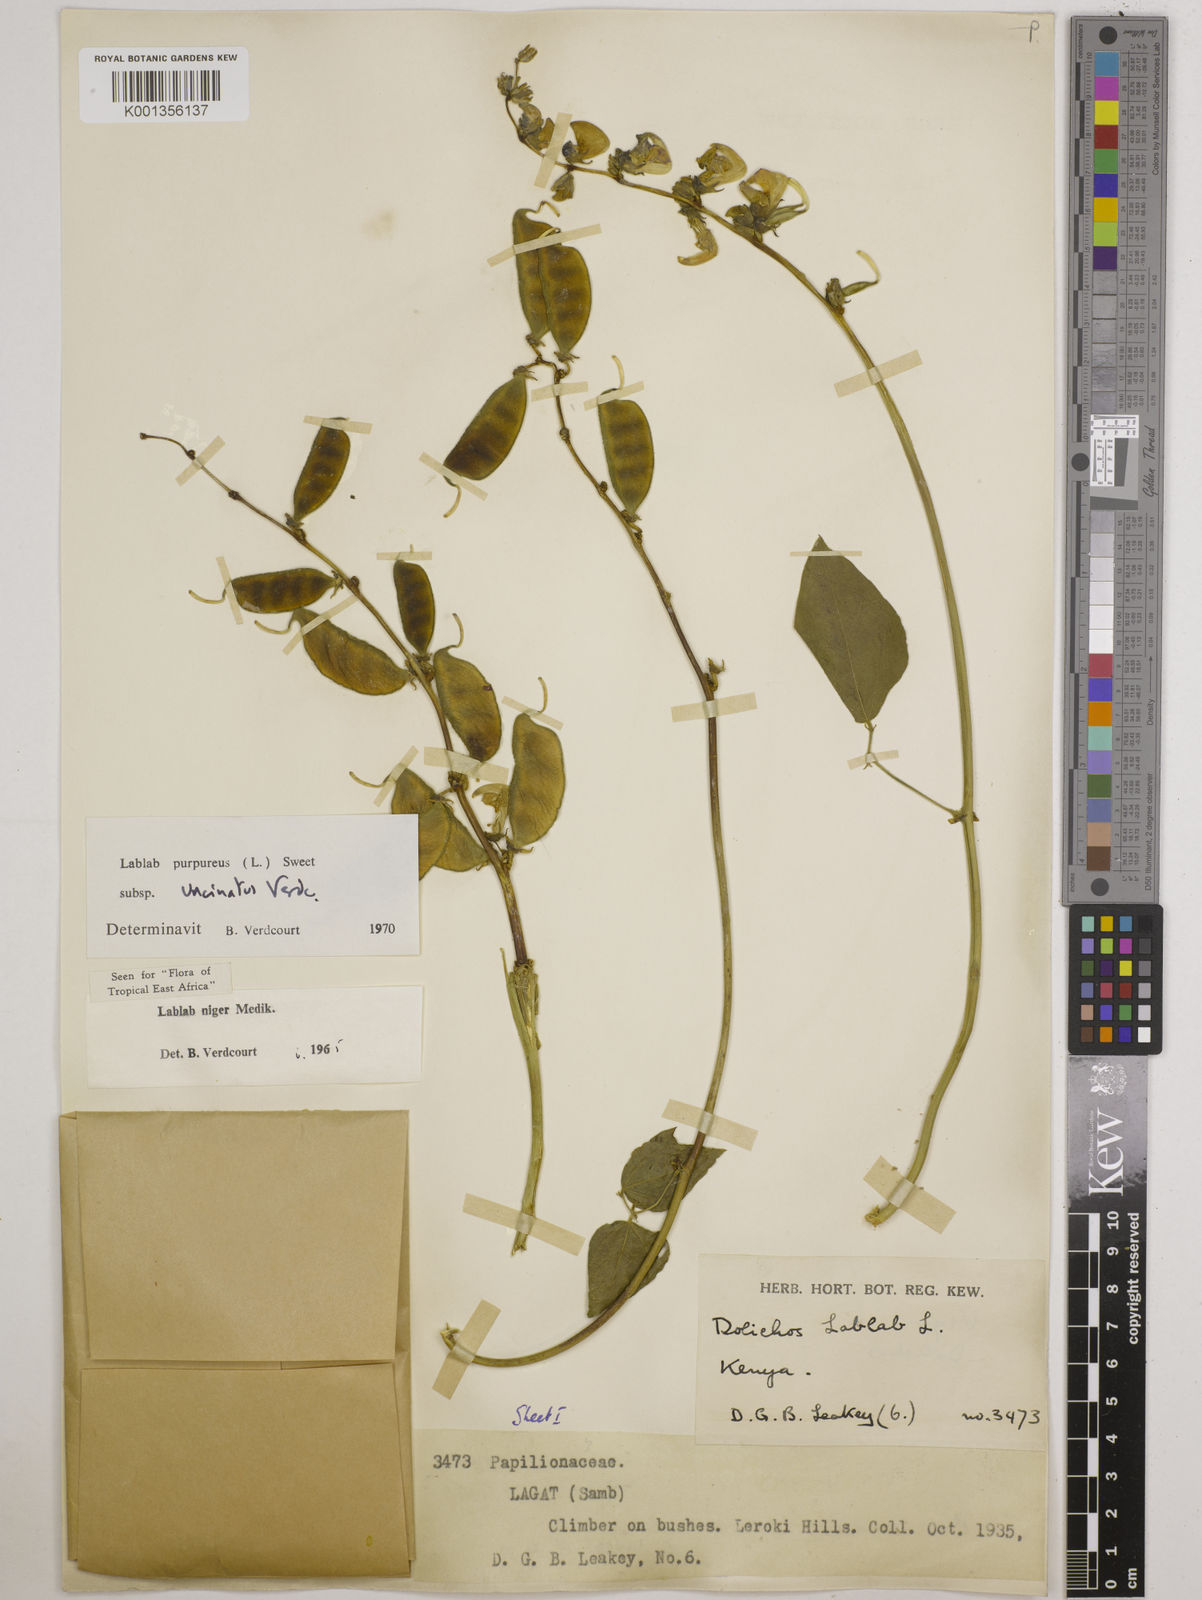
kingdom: Plantae
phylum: Tracheophyta
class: Magnoliopsida
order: Fabales
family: Fabaceae
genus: Lablab
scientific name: Lablab purpureus
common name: Lablab-bean
